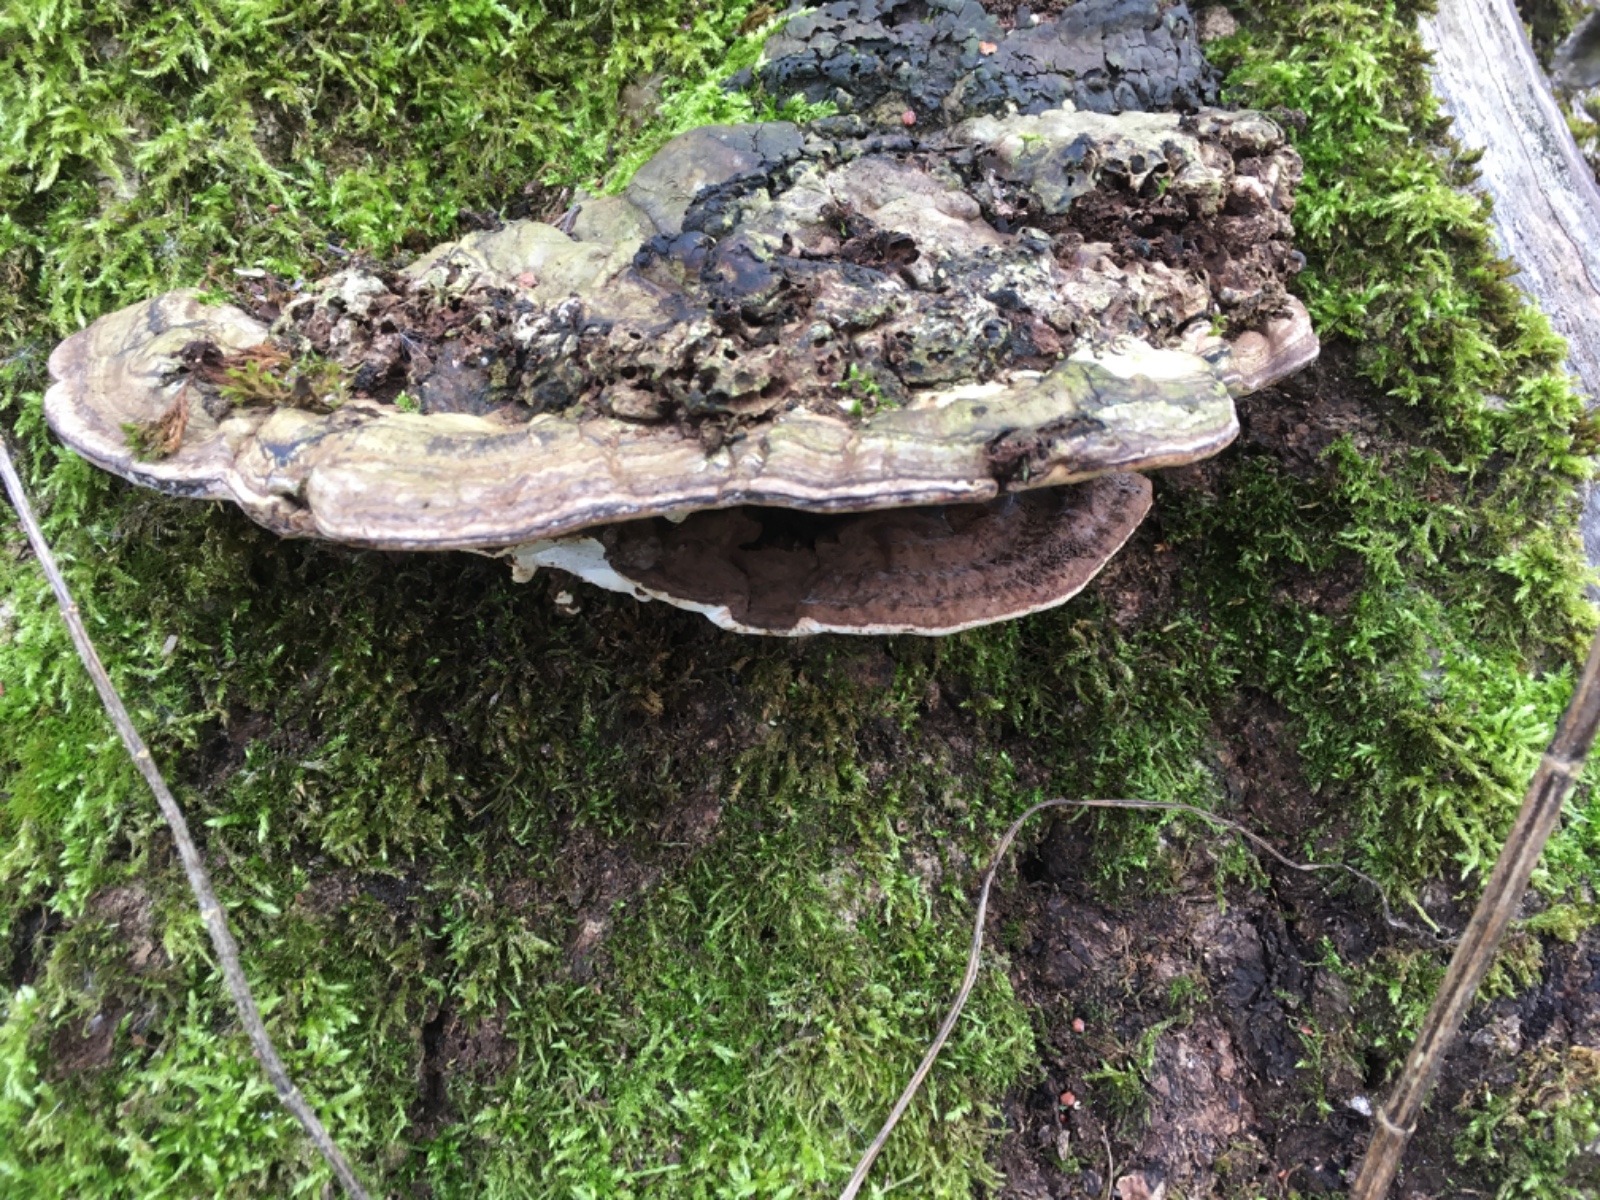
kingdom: Fungi
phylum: Basidiomycota
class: Agaricomycetes
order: Polyporales
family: Polyporaceae
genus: Ganoderma
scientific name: Ganoderma applanatum
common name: flad lakporesvamp
